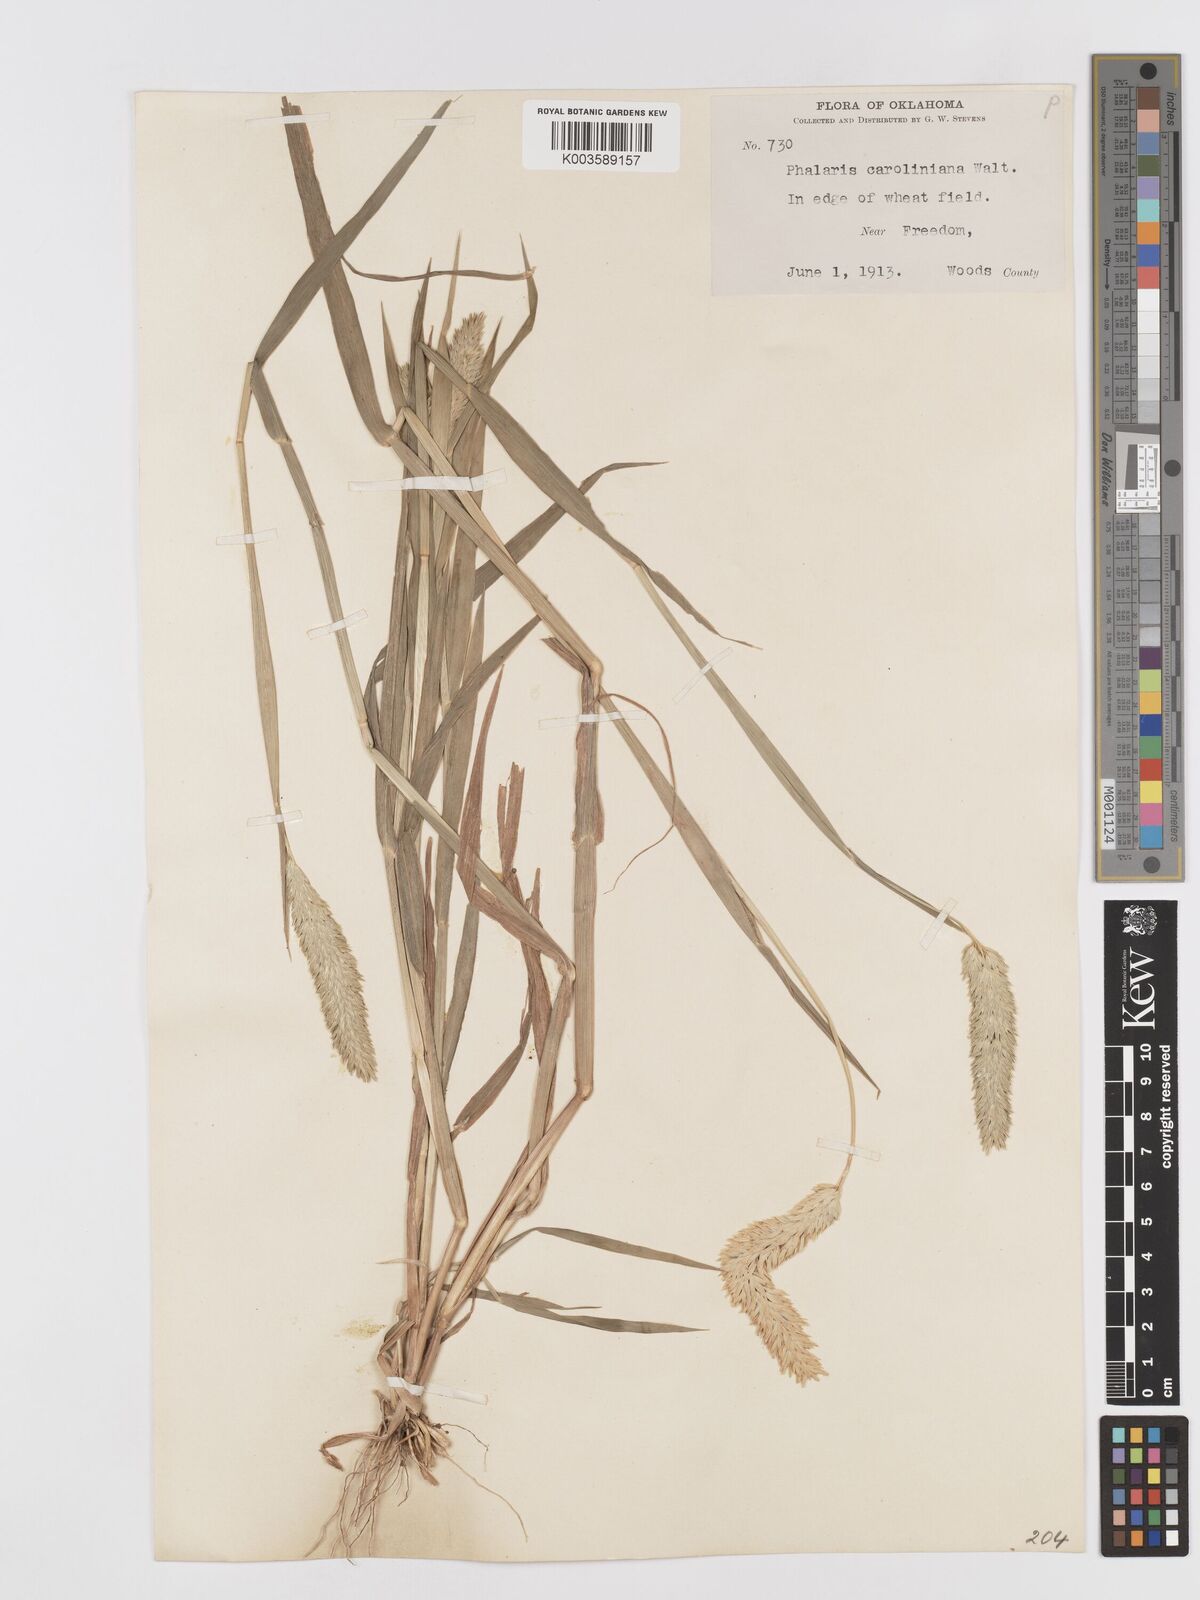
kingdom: Plantae
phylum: Tracheophyta
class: Liliopsida
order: Poales
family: Poaceae
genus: Phalaris
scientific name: Phalaris caroliniana
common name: May grass
